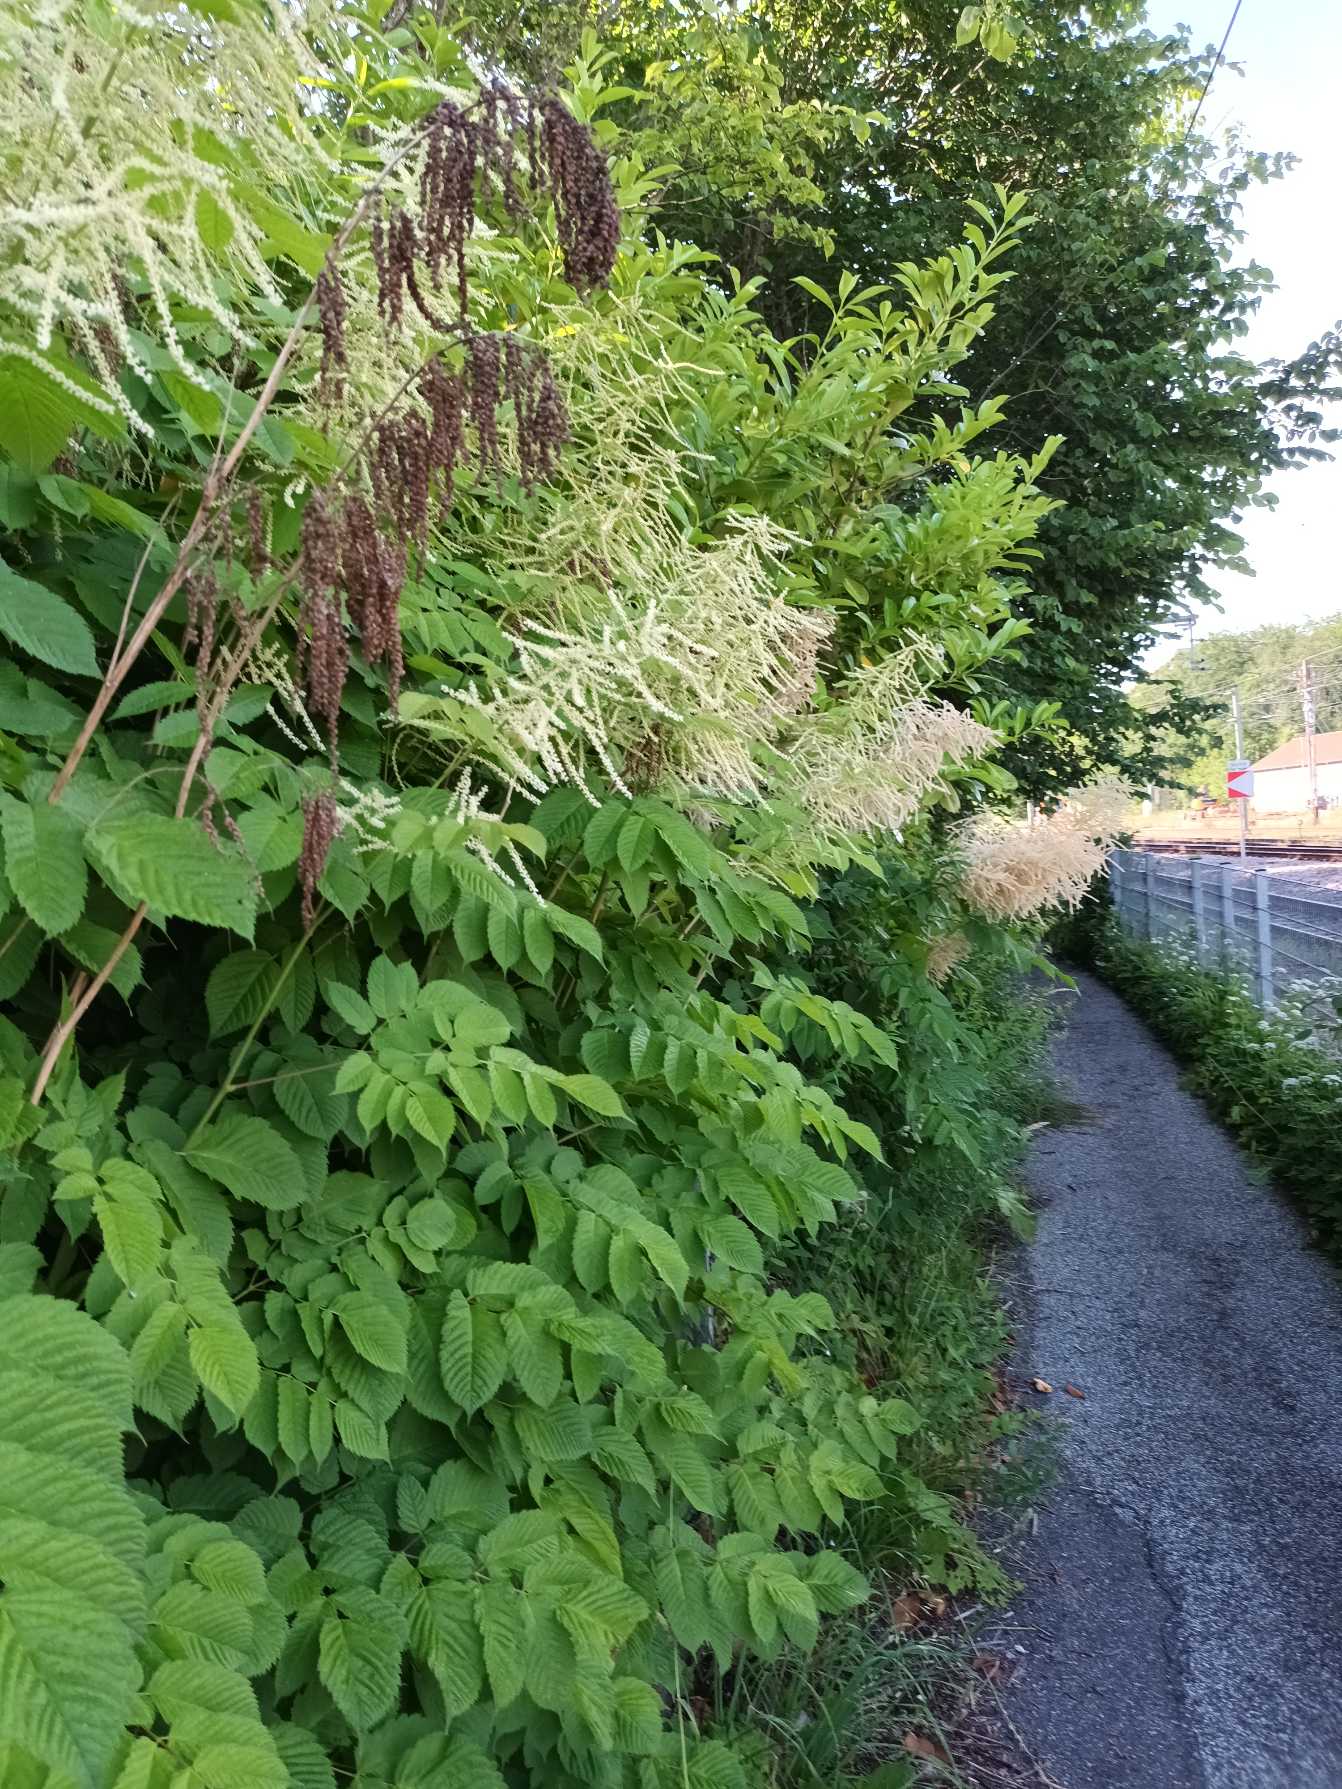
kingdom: Plantae
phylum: Tracheophyta
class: Magnoliopsida
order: Rosales
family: Rosaceae
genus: Aruncus
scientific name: Aruncus dioicus
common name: Fjerbusk
